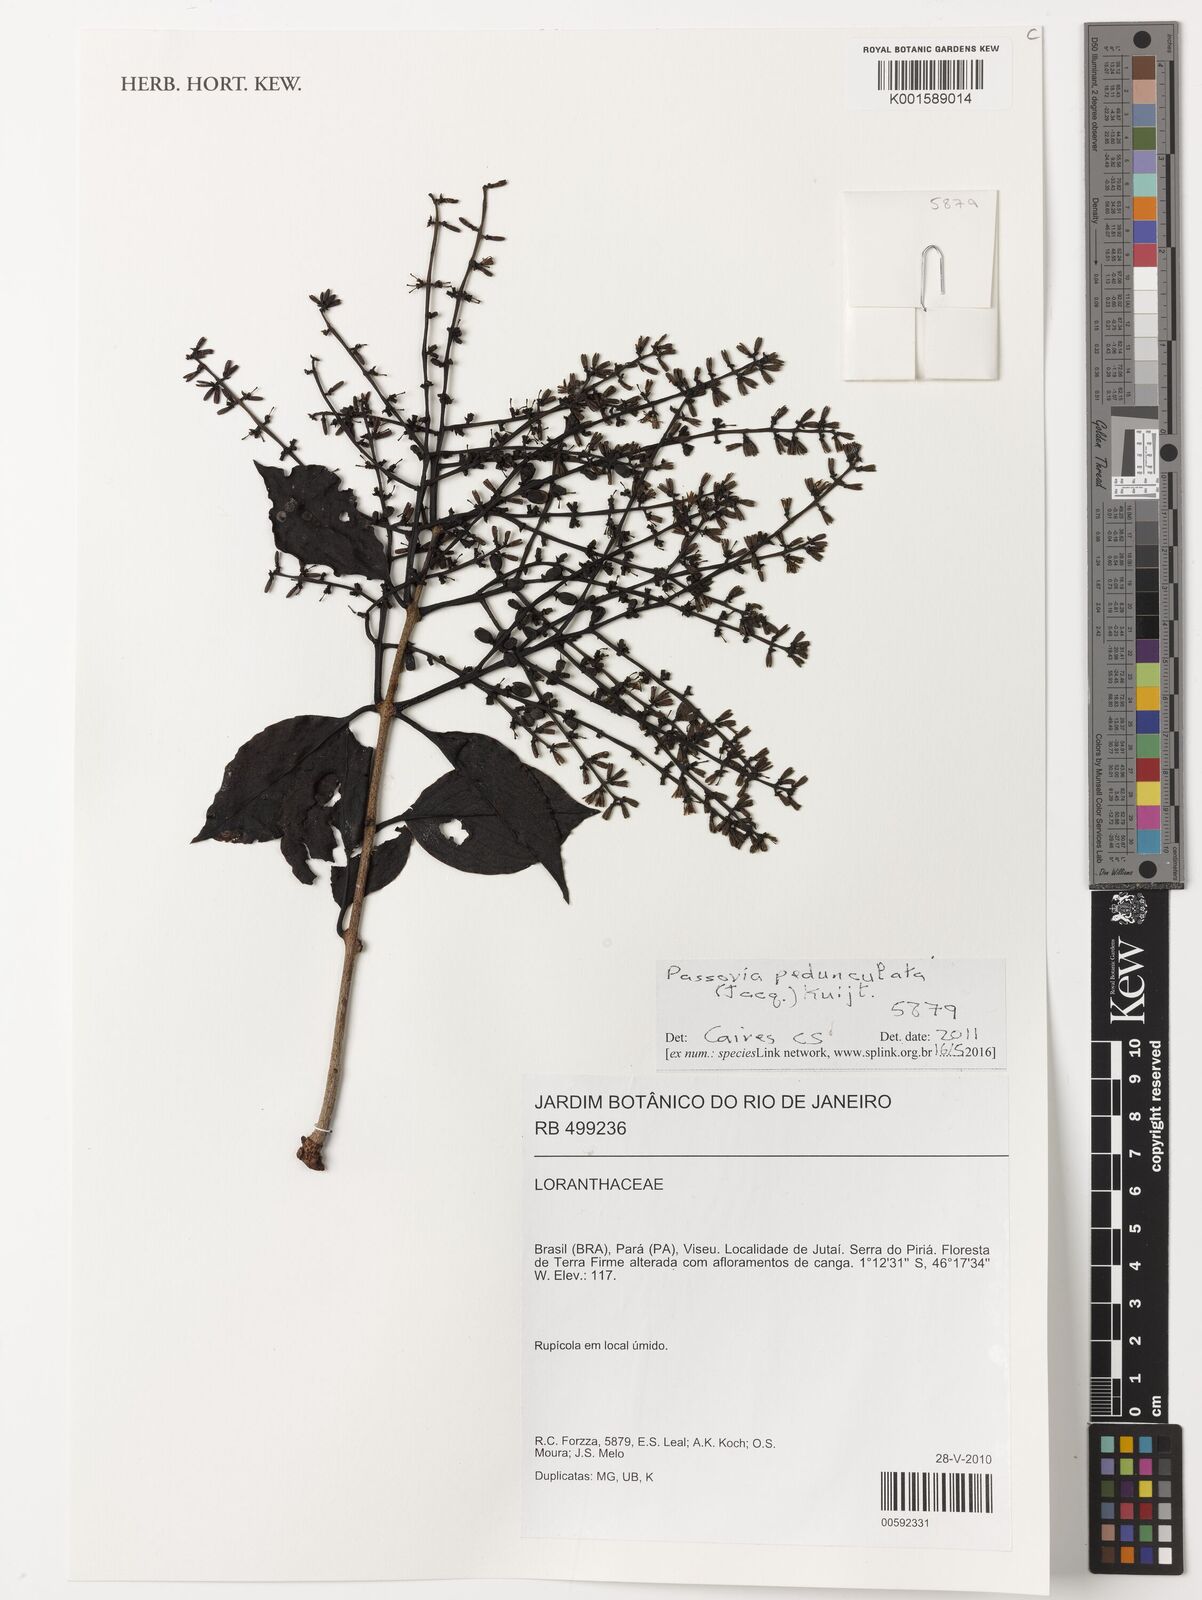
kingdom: Plantae
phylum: Tracheophyta
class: Magnoliopsida
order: Santalales
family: Loranthaceae
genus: Passovia
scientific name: Passovia pedunculata
